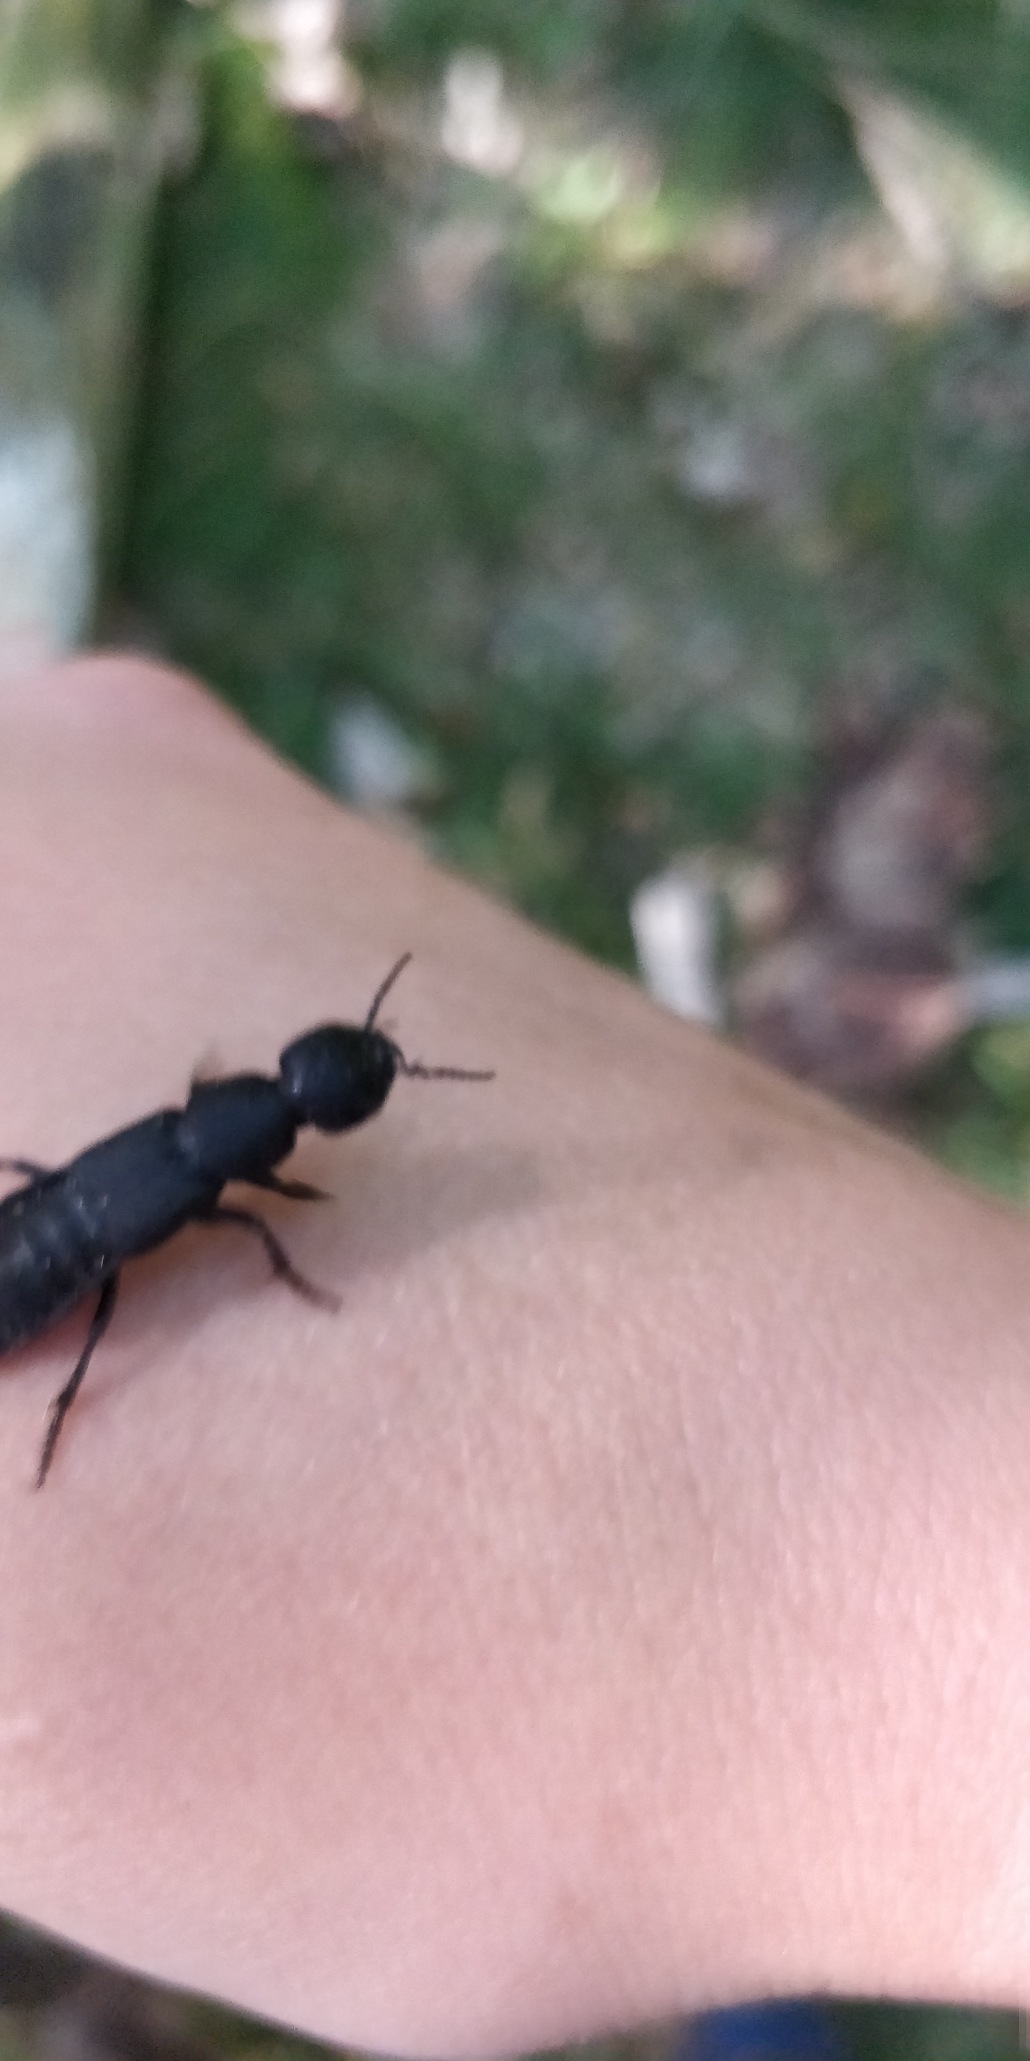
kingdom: Animalia
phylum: Arthropoda
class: Insecta
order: Coleoptera
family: Staphylinidae
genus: Ocypus
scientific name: Ocypus olens
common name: Stor rovbille
